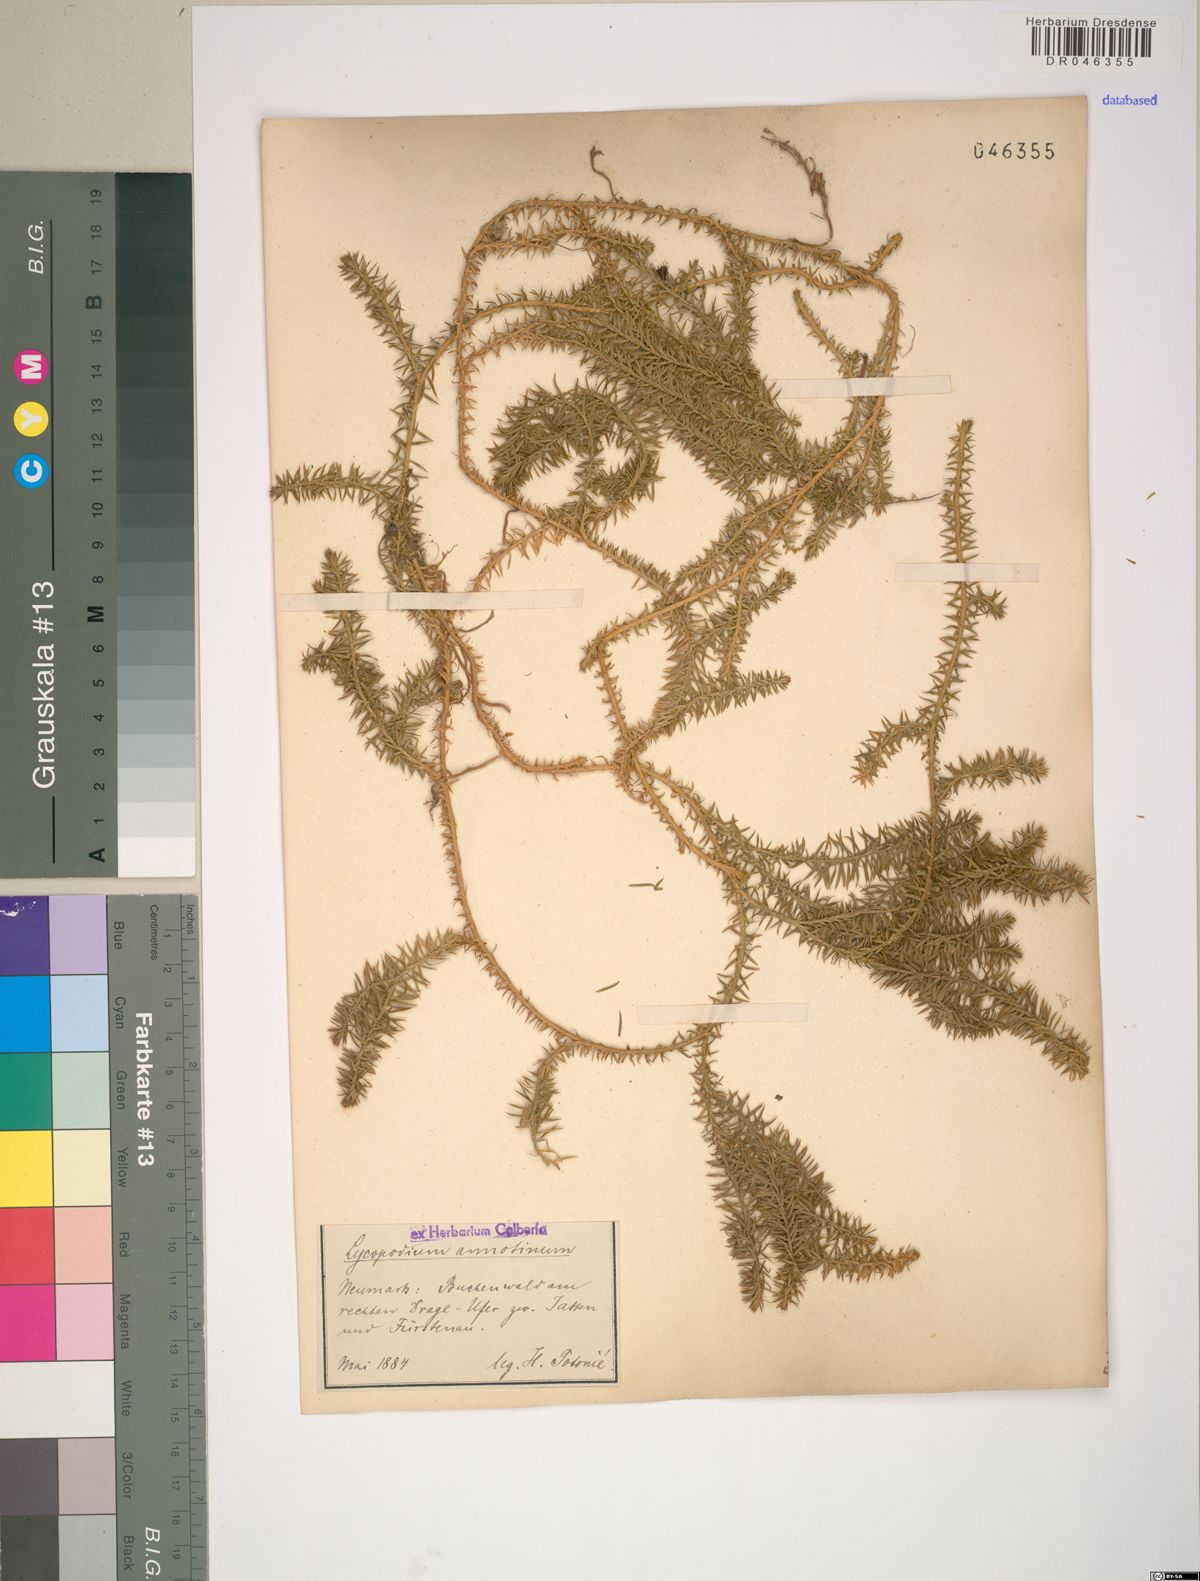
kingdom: Plantae
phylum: Tracheophyta
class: Lycopodiopsida
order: Lycopodiales
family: Lycopodiaceae
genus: Spinulum
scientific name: Spinulum annotinum
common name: Interrupted club-moss
